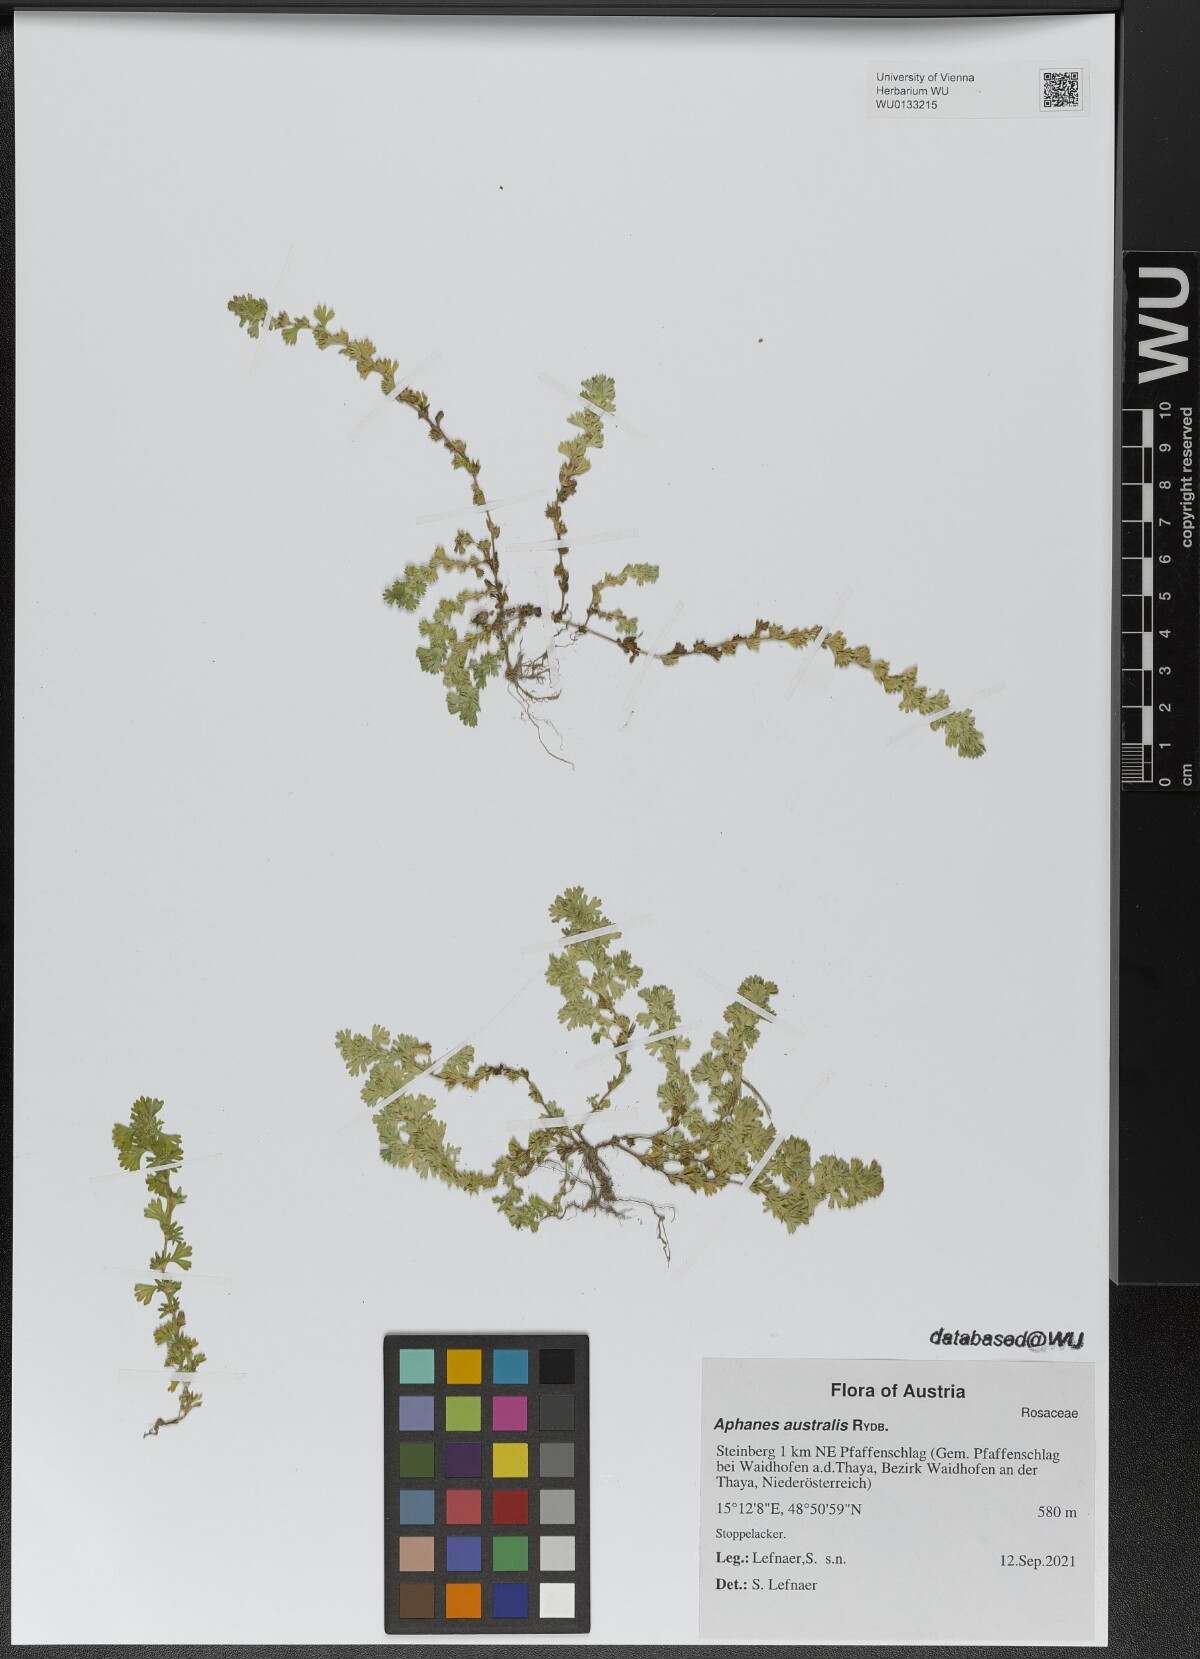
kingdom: Plantae
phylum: Tracheophyta
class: Magnoliopsida
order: Rosales
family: Rosaceae
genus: Aphanes
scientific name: Aphanes australis
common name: Slender parsley-piert
